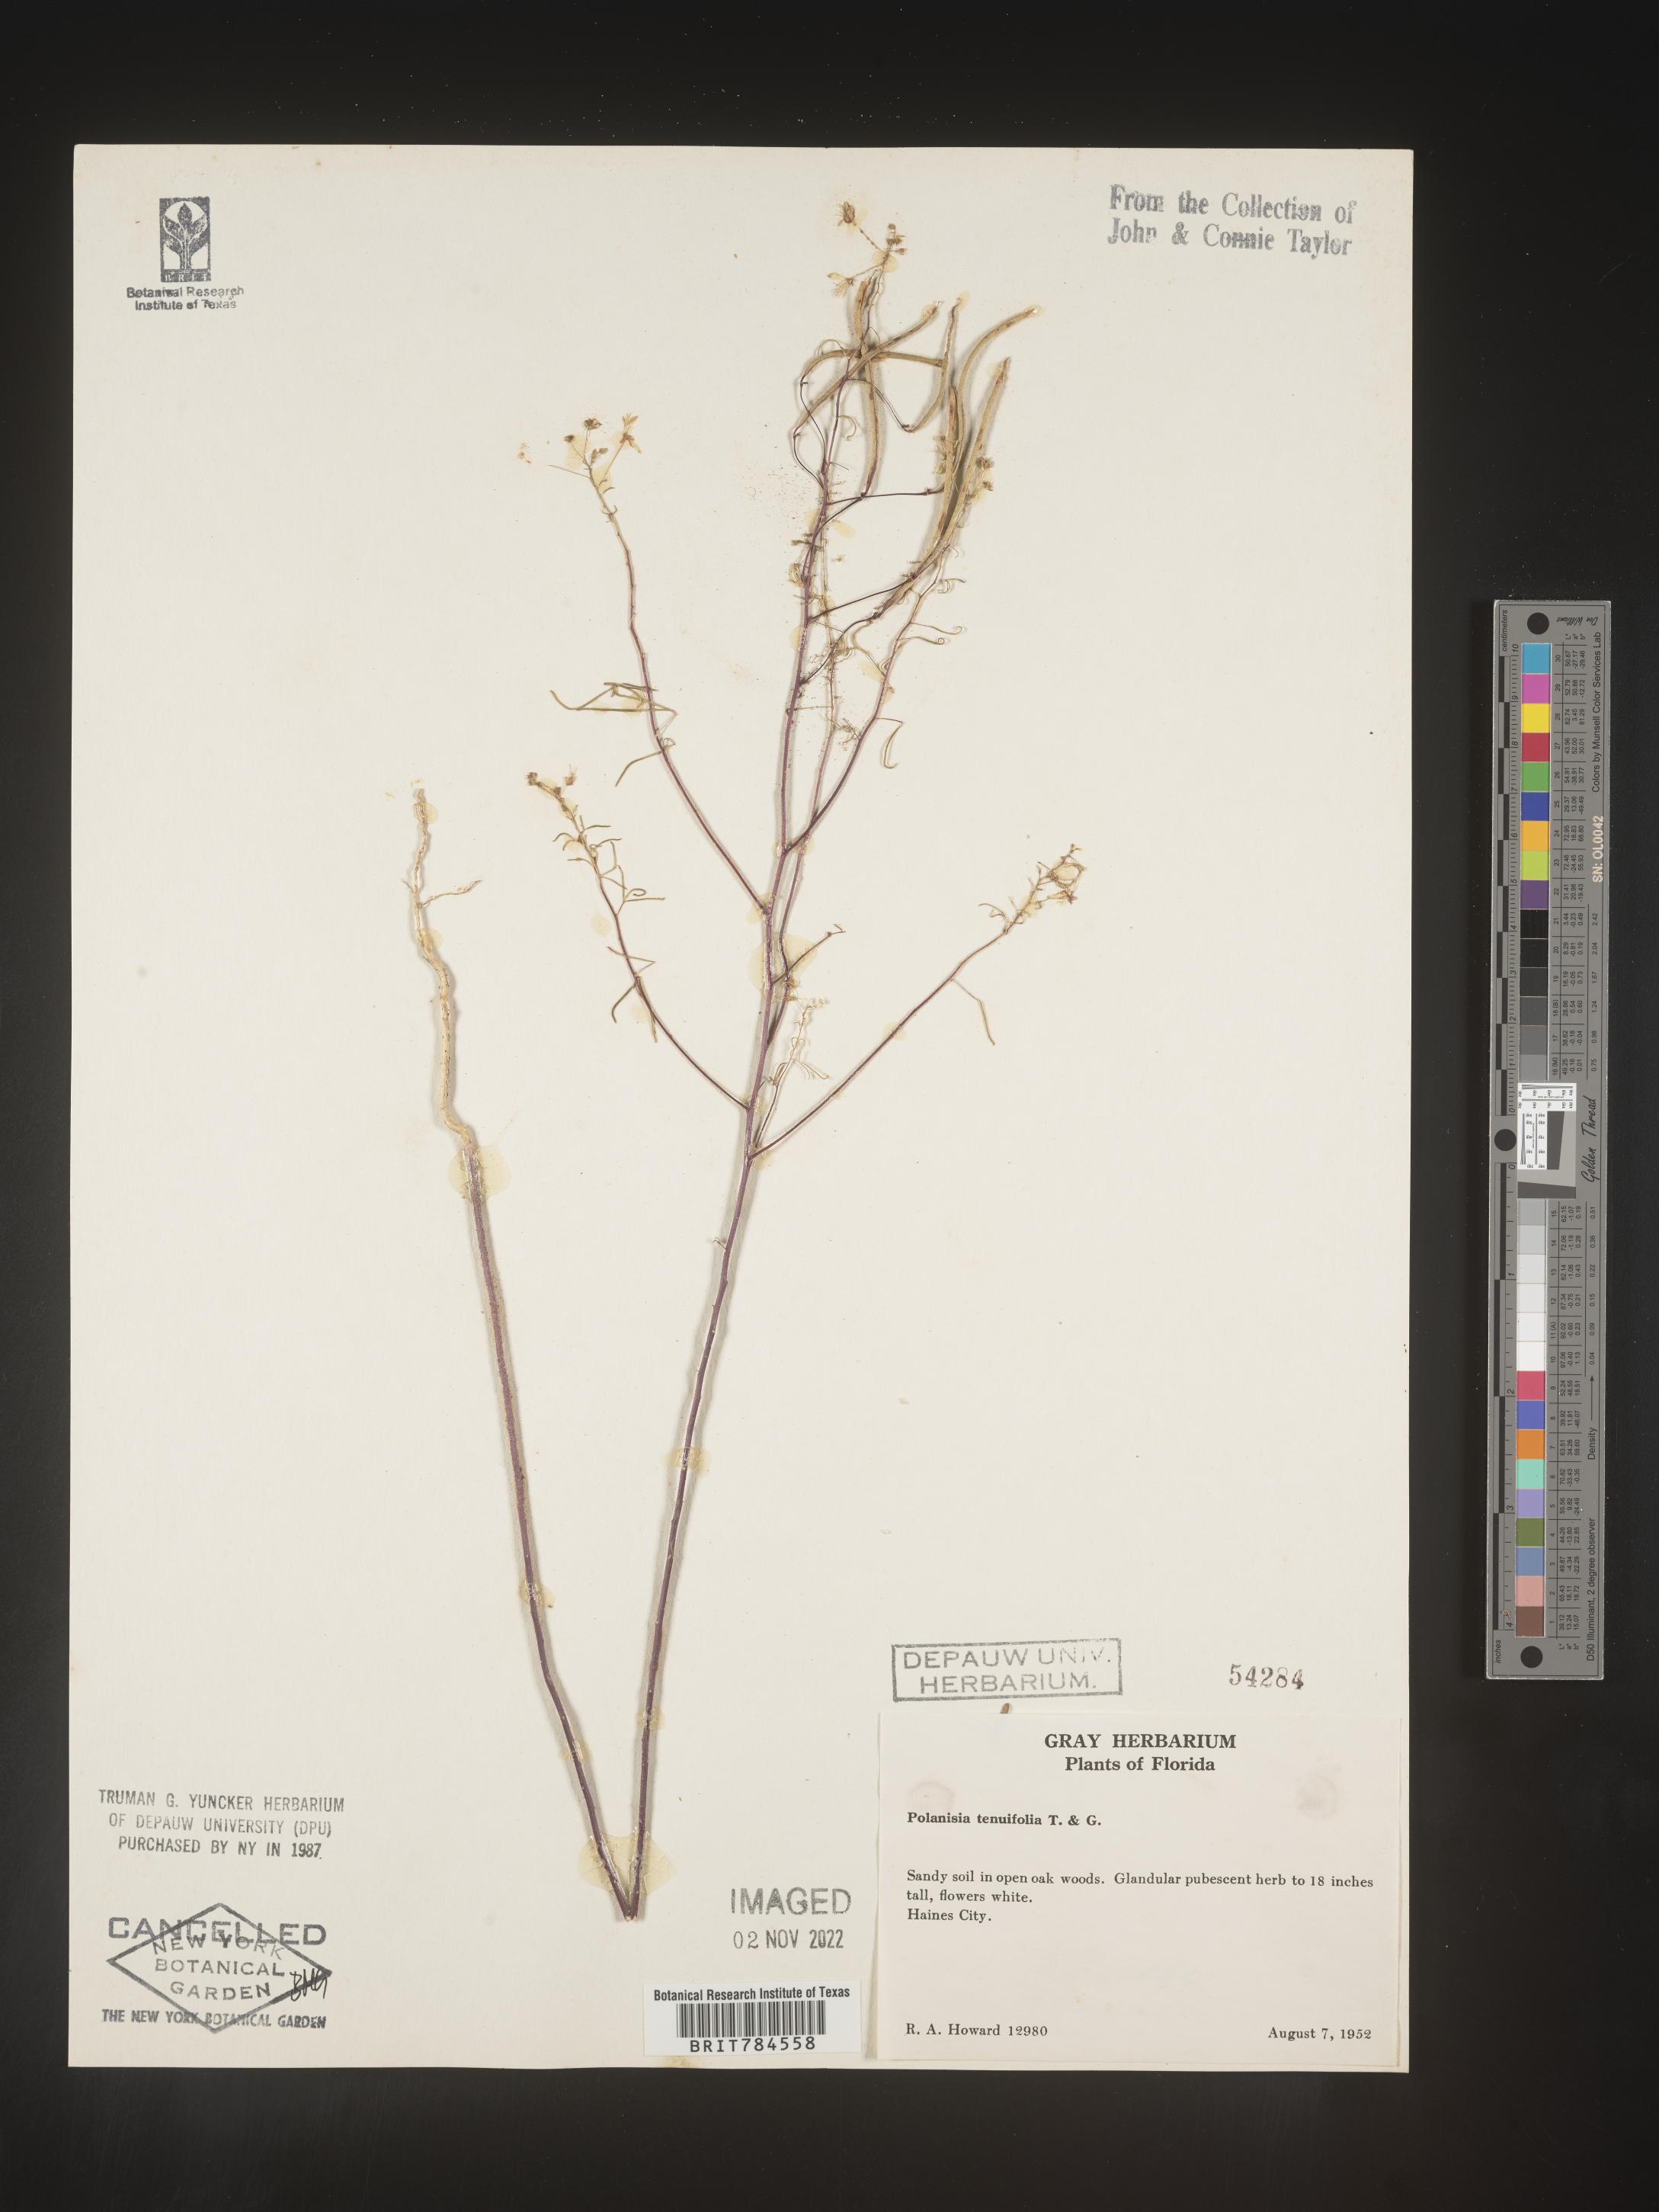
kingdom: Plantae
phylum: Tracheophyta
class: Magnoliopsida
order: Brassicales
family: Cleomaceae
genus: Polanisia
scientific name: Polanisia
